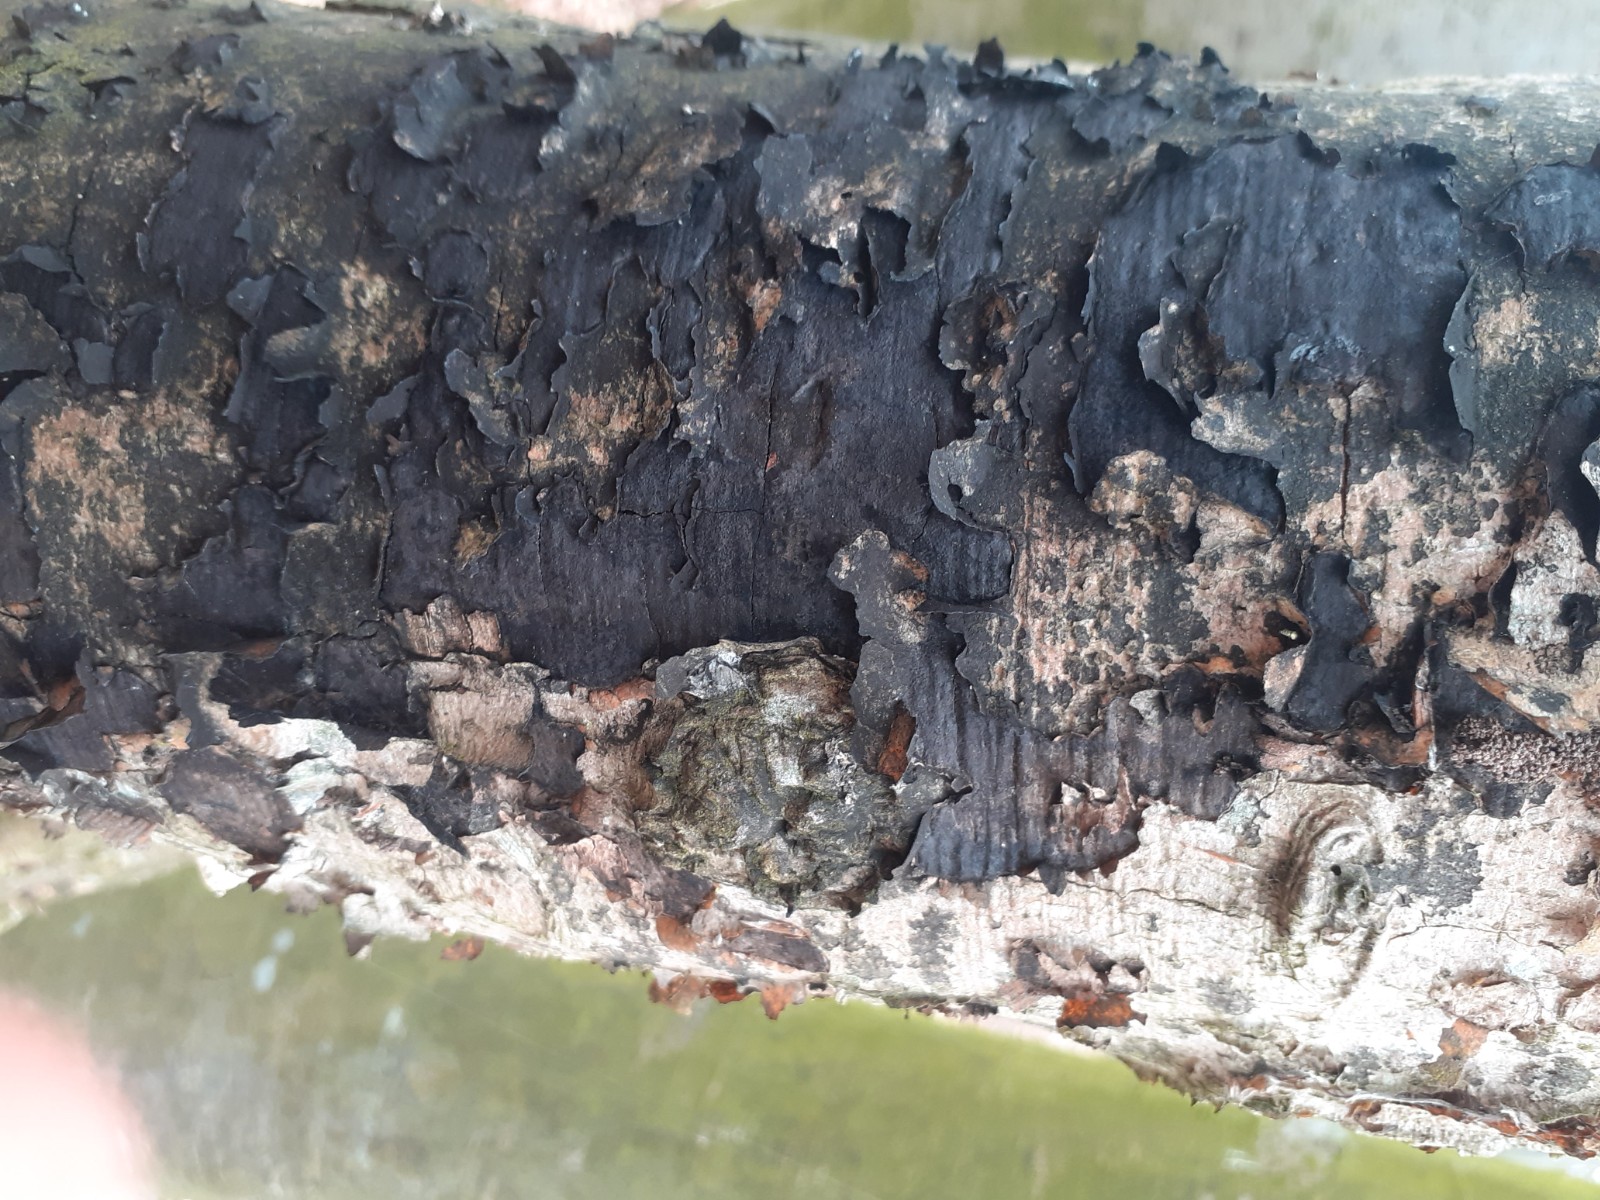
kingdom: Fungi
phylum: Ascomycota
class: Sordariomycetes
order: Xylariales
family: Graphostromataceae
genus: Biscogniauxia
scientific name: Biscogniauxia nummularia
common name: bøge-kulskive
